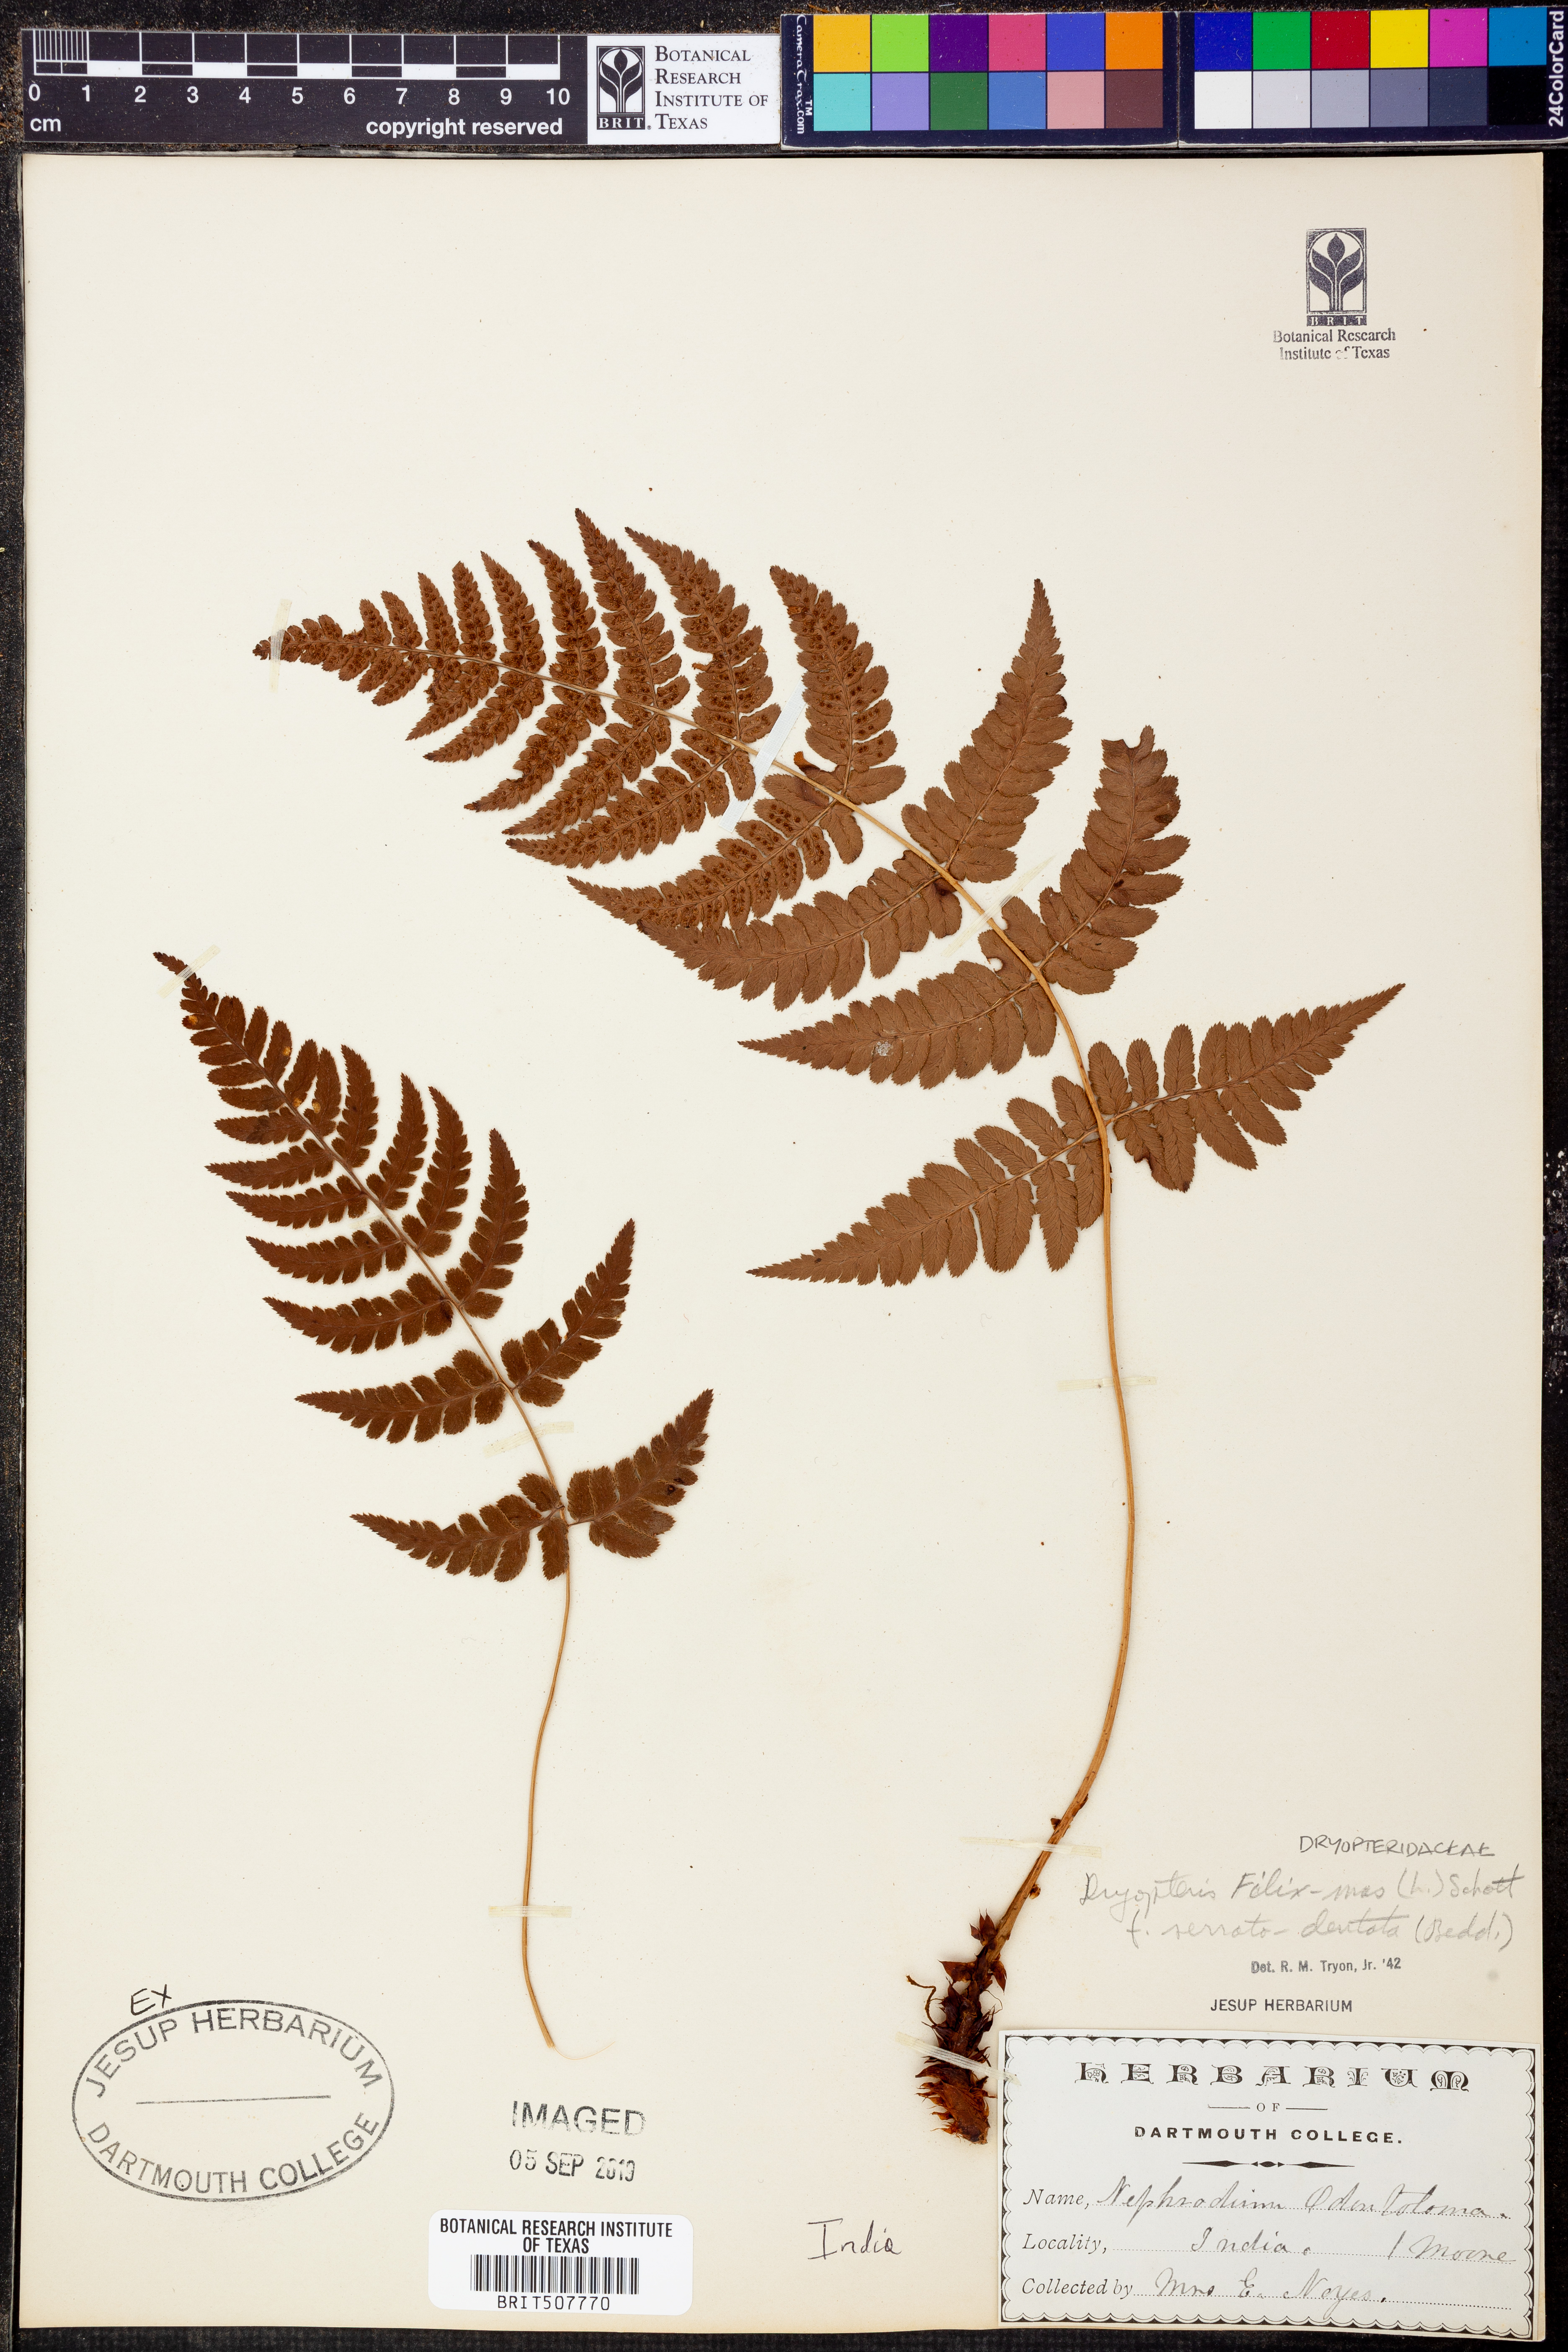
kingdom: Plantae
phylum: Tracheophyta
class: Polypodiopsida
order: Polypodiales
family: Dryopteridaceae
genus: Dryopteris
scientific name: Dryopteris filix-mas
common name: Male fern
